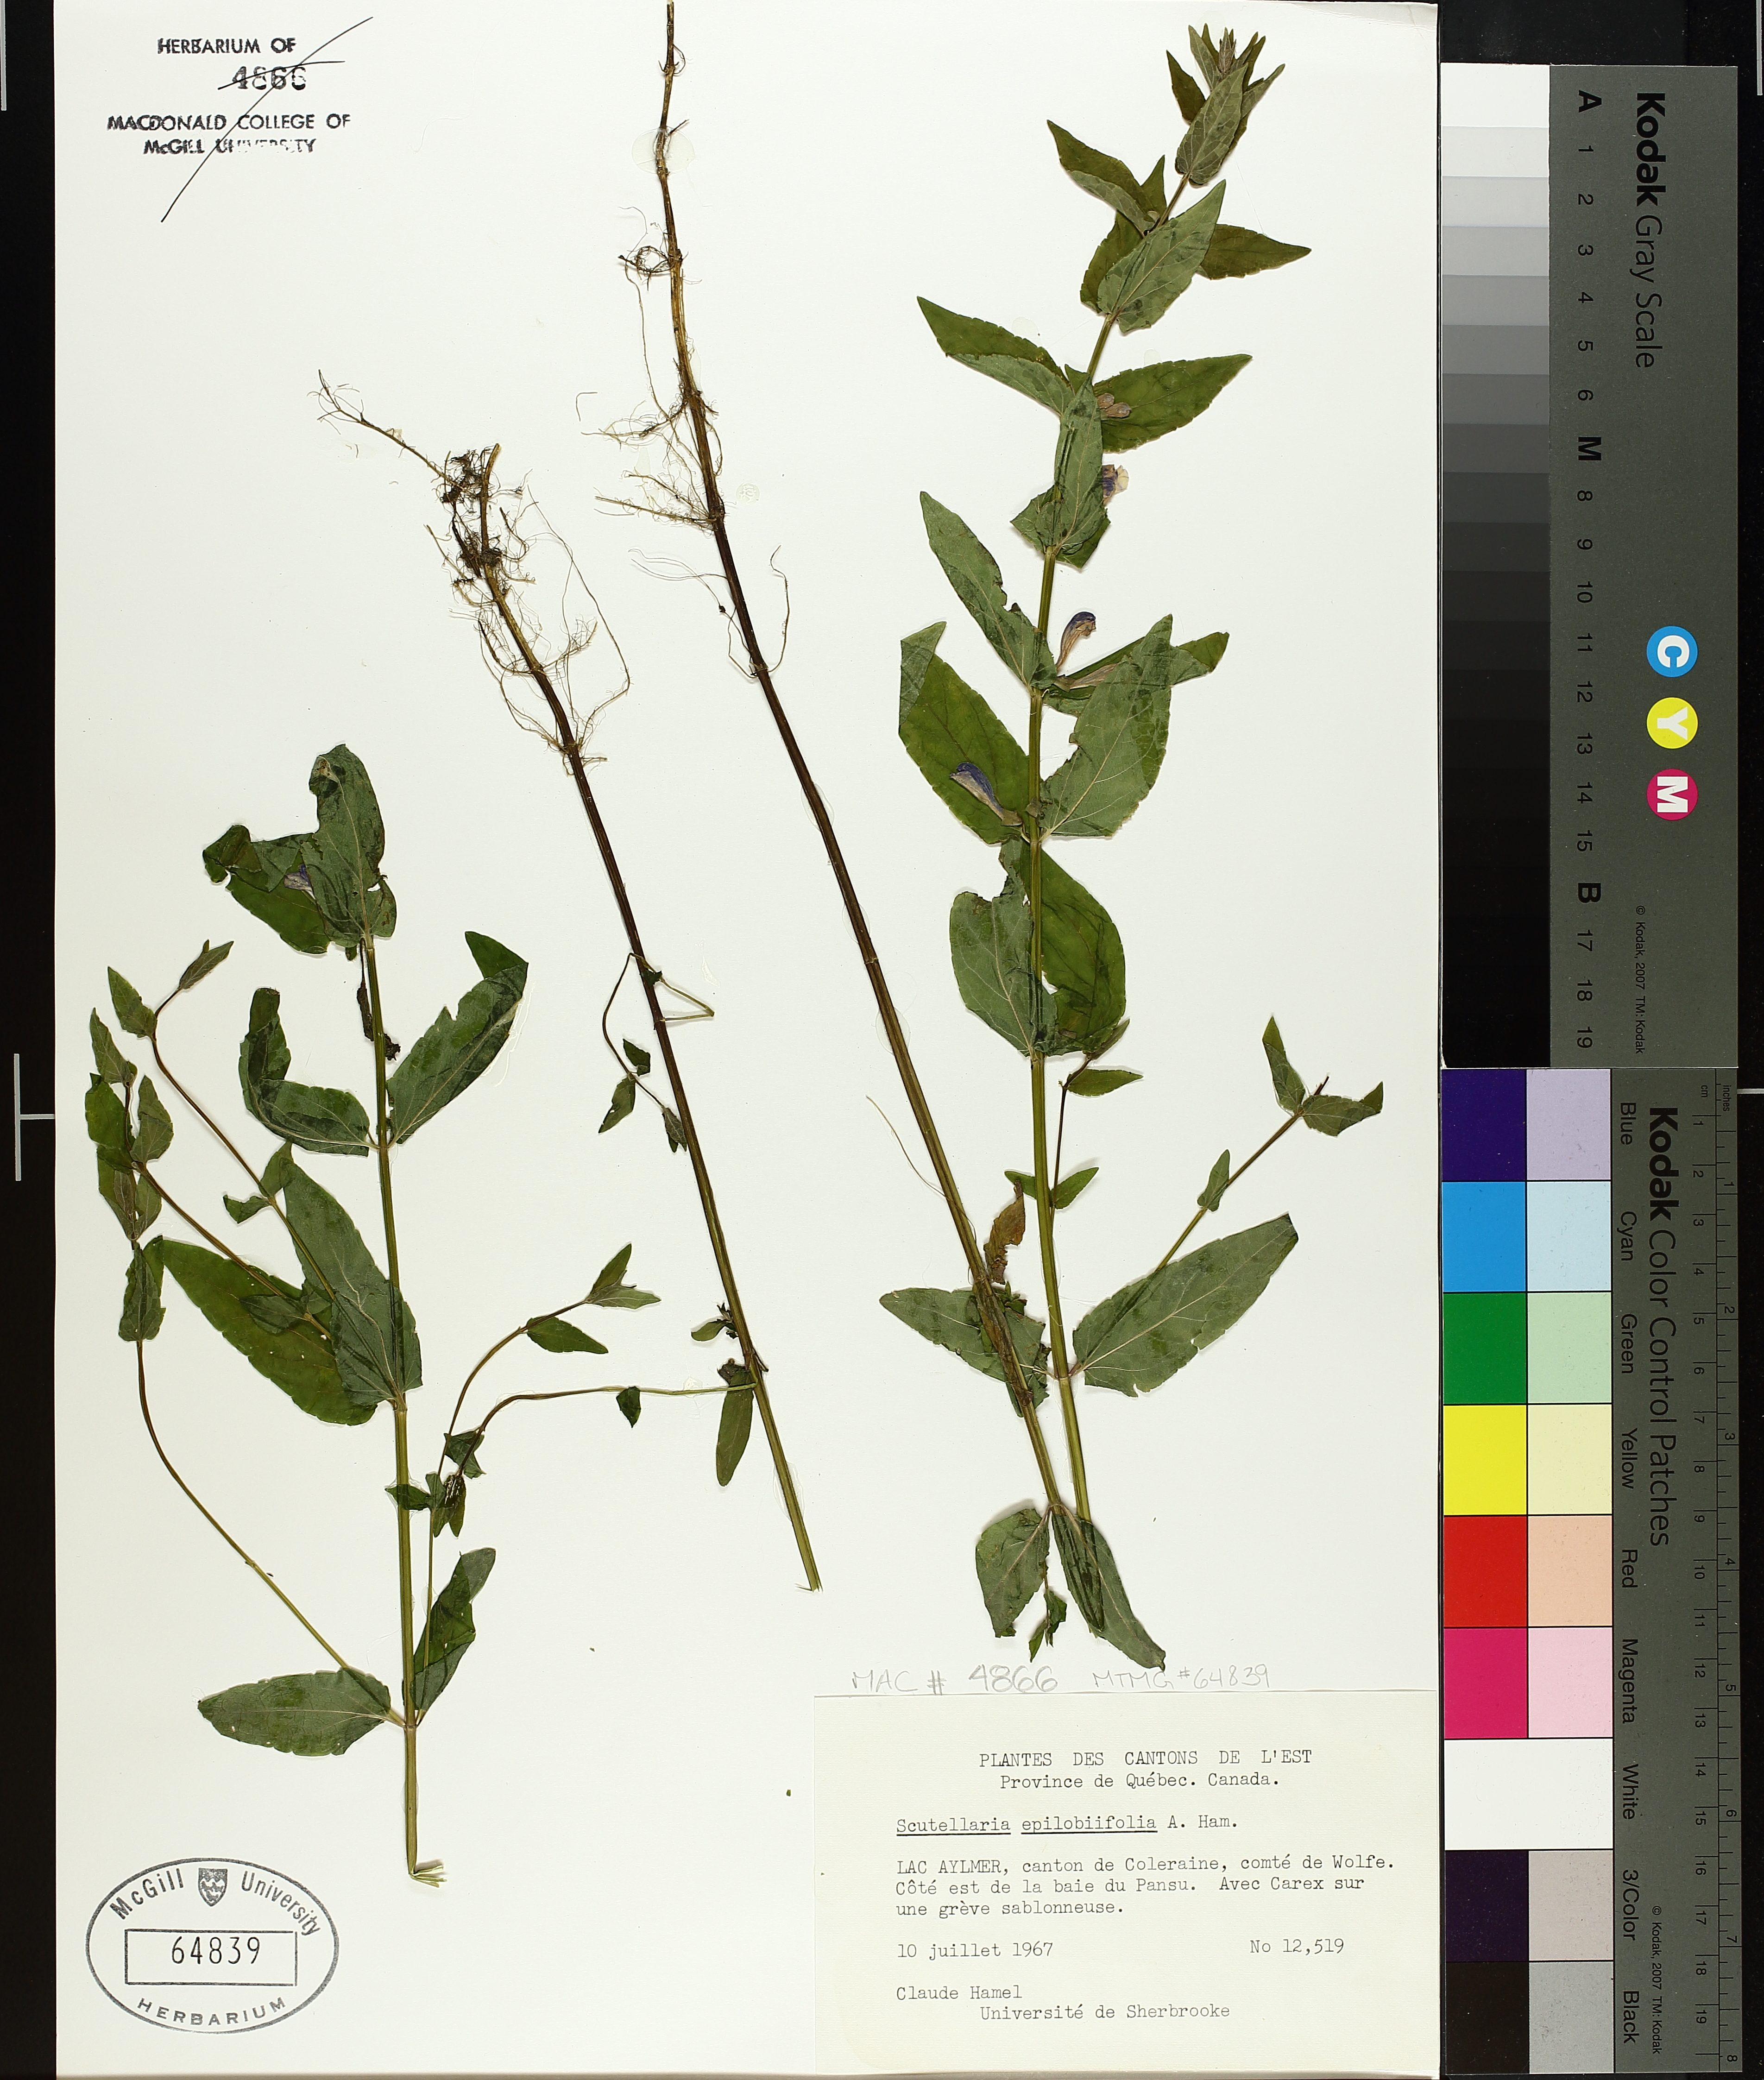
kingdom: Plantae
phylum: Tracheophyta
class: Magnoliopsida
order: Lamiales
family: Lamiaceae
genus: Scutellaria
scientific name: Scutellaria galericulata
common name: Skullcap
